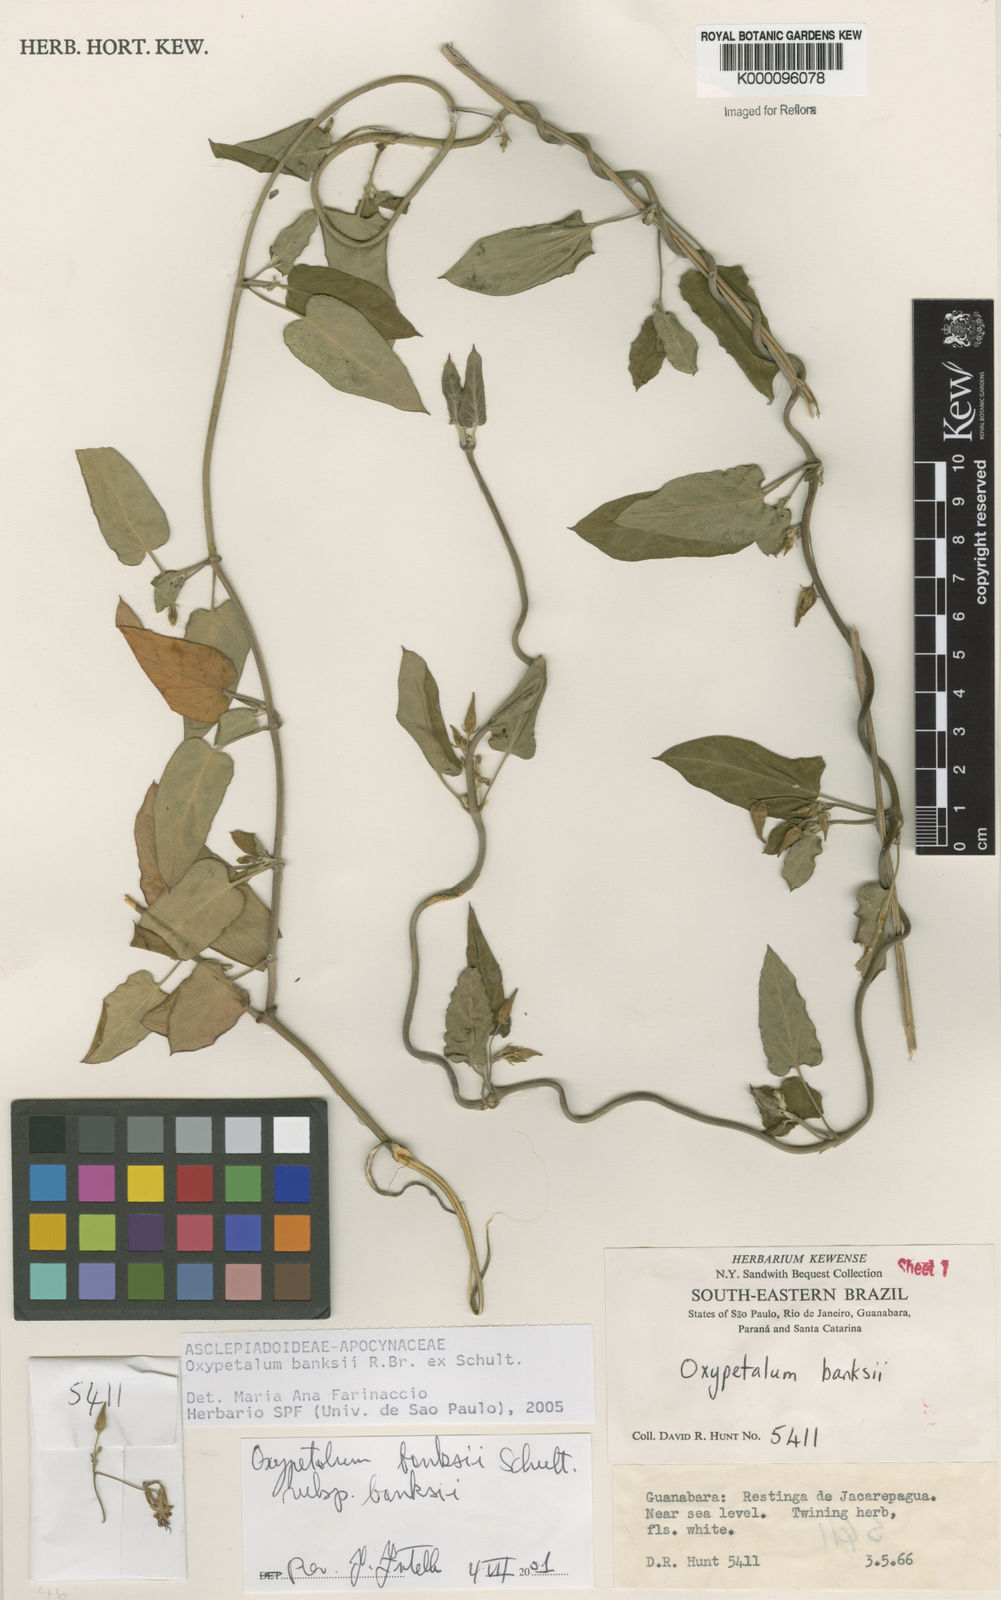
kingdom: Plantae
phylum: Tracheophyta
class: Magnoliopsida
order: Gentianales
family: Apocynaceae
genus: Oxypetalum
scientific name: Oxypetalum banksii
